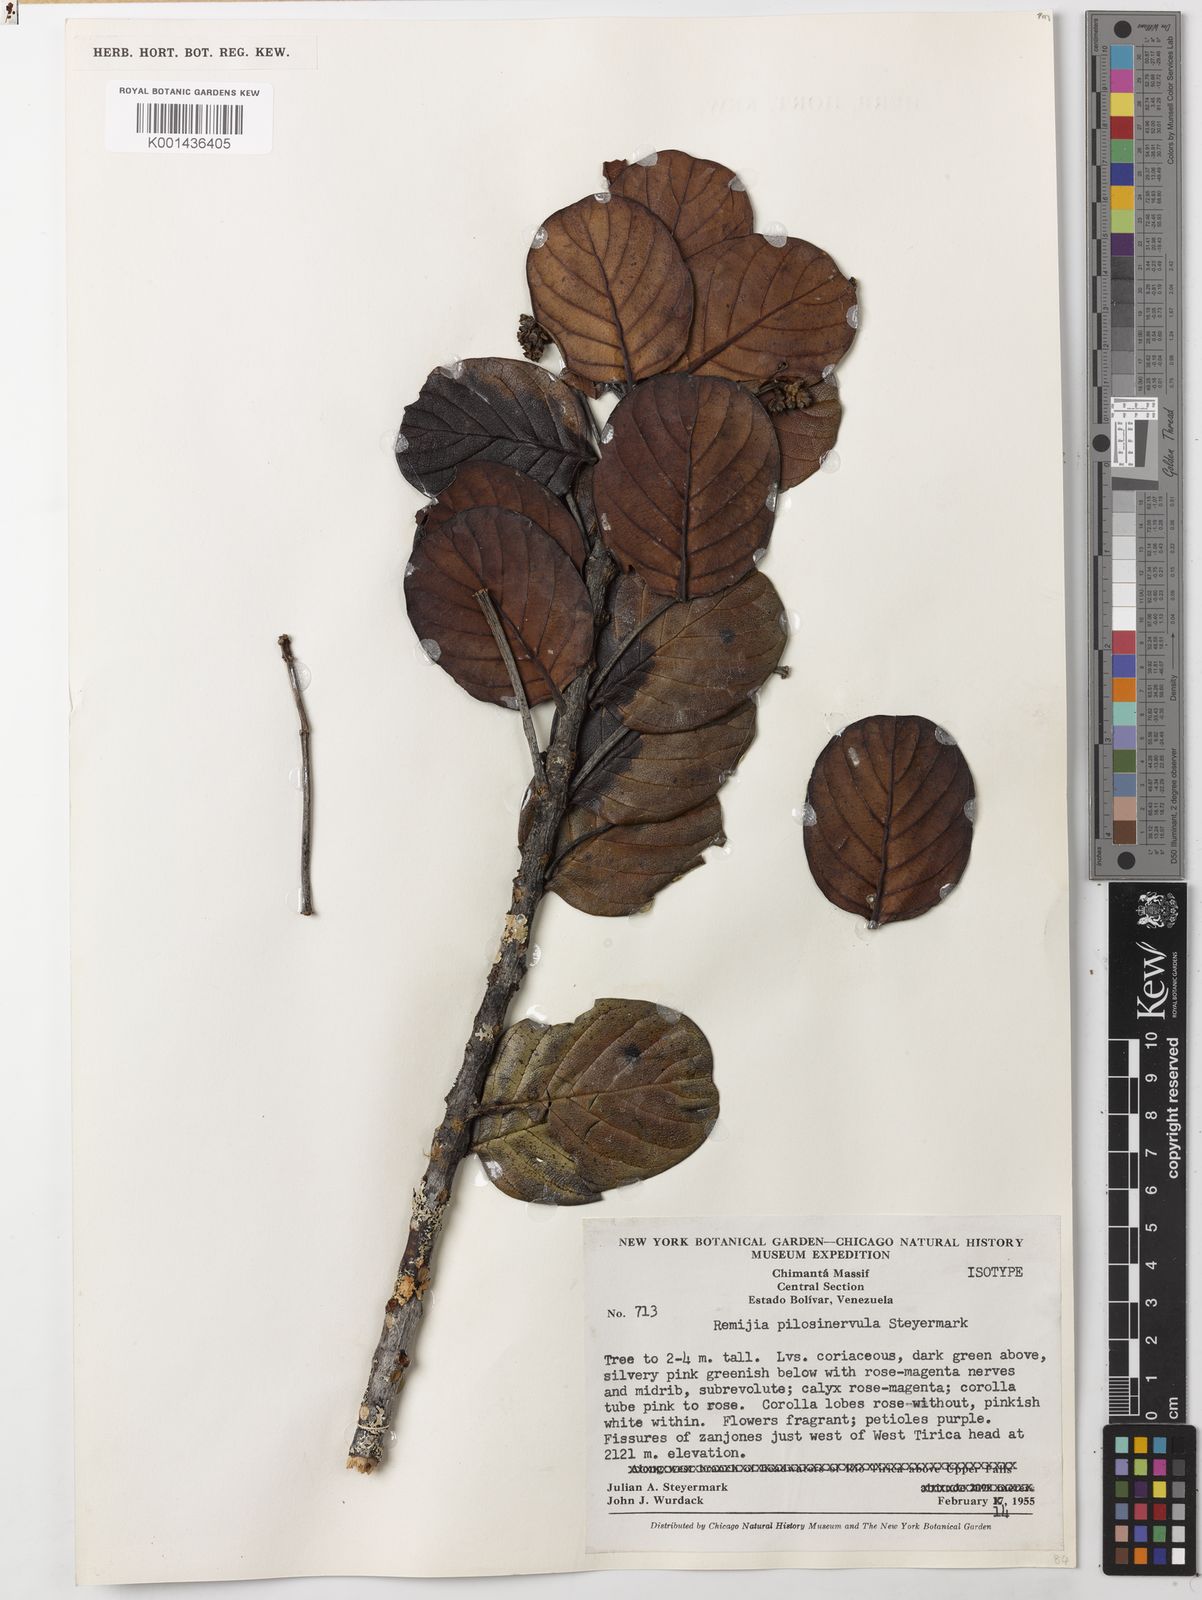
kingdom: Plantae
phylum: Tracheophyta
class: Magnoliopsida
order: Gentianales
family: Rubiaceae
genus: Remijia
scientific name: Remijia pilosinervula
